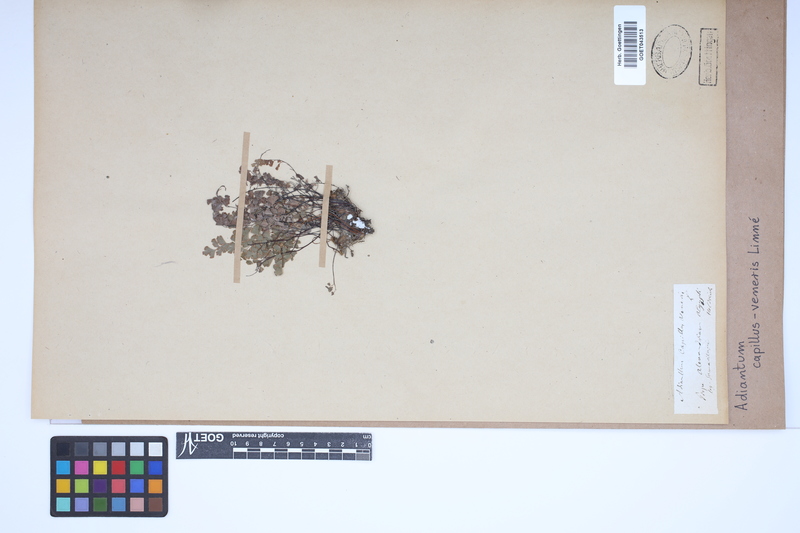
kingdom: Plantae
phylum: Tracheophyta
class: Polypodiopsida
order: Polypodiales
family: Pteridaceae
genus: Adiantum
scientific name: Adiantum capillus-veneris
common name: Maidenhair fern
